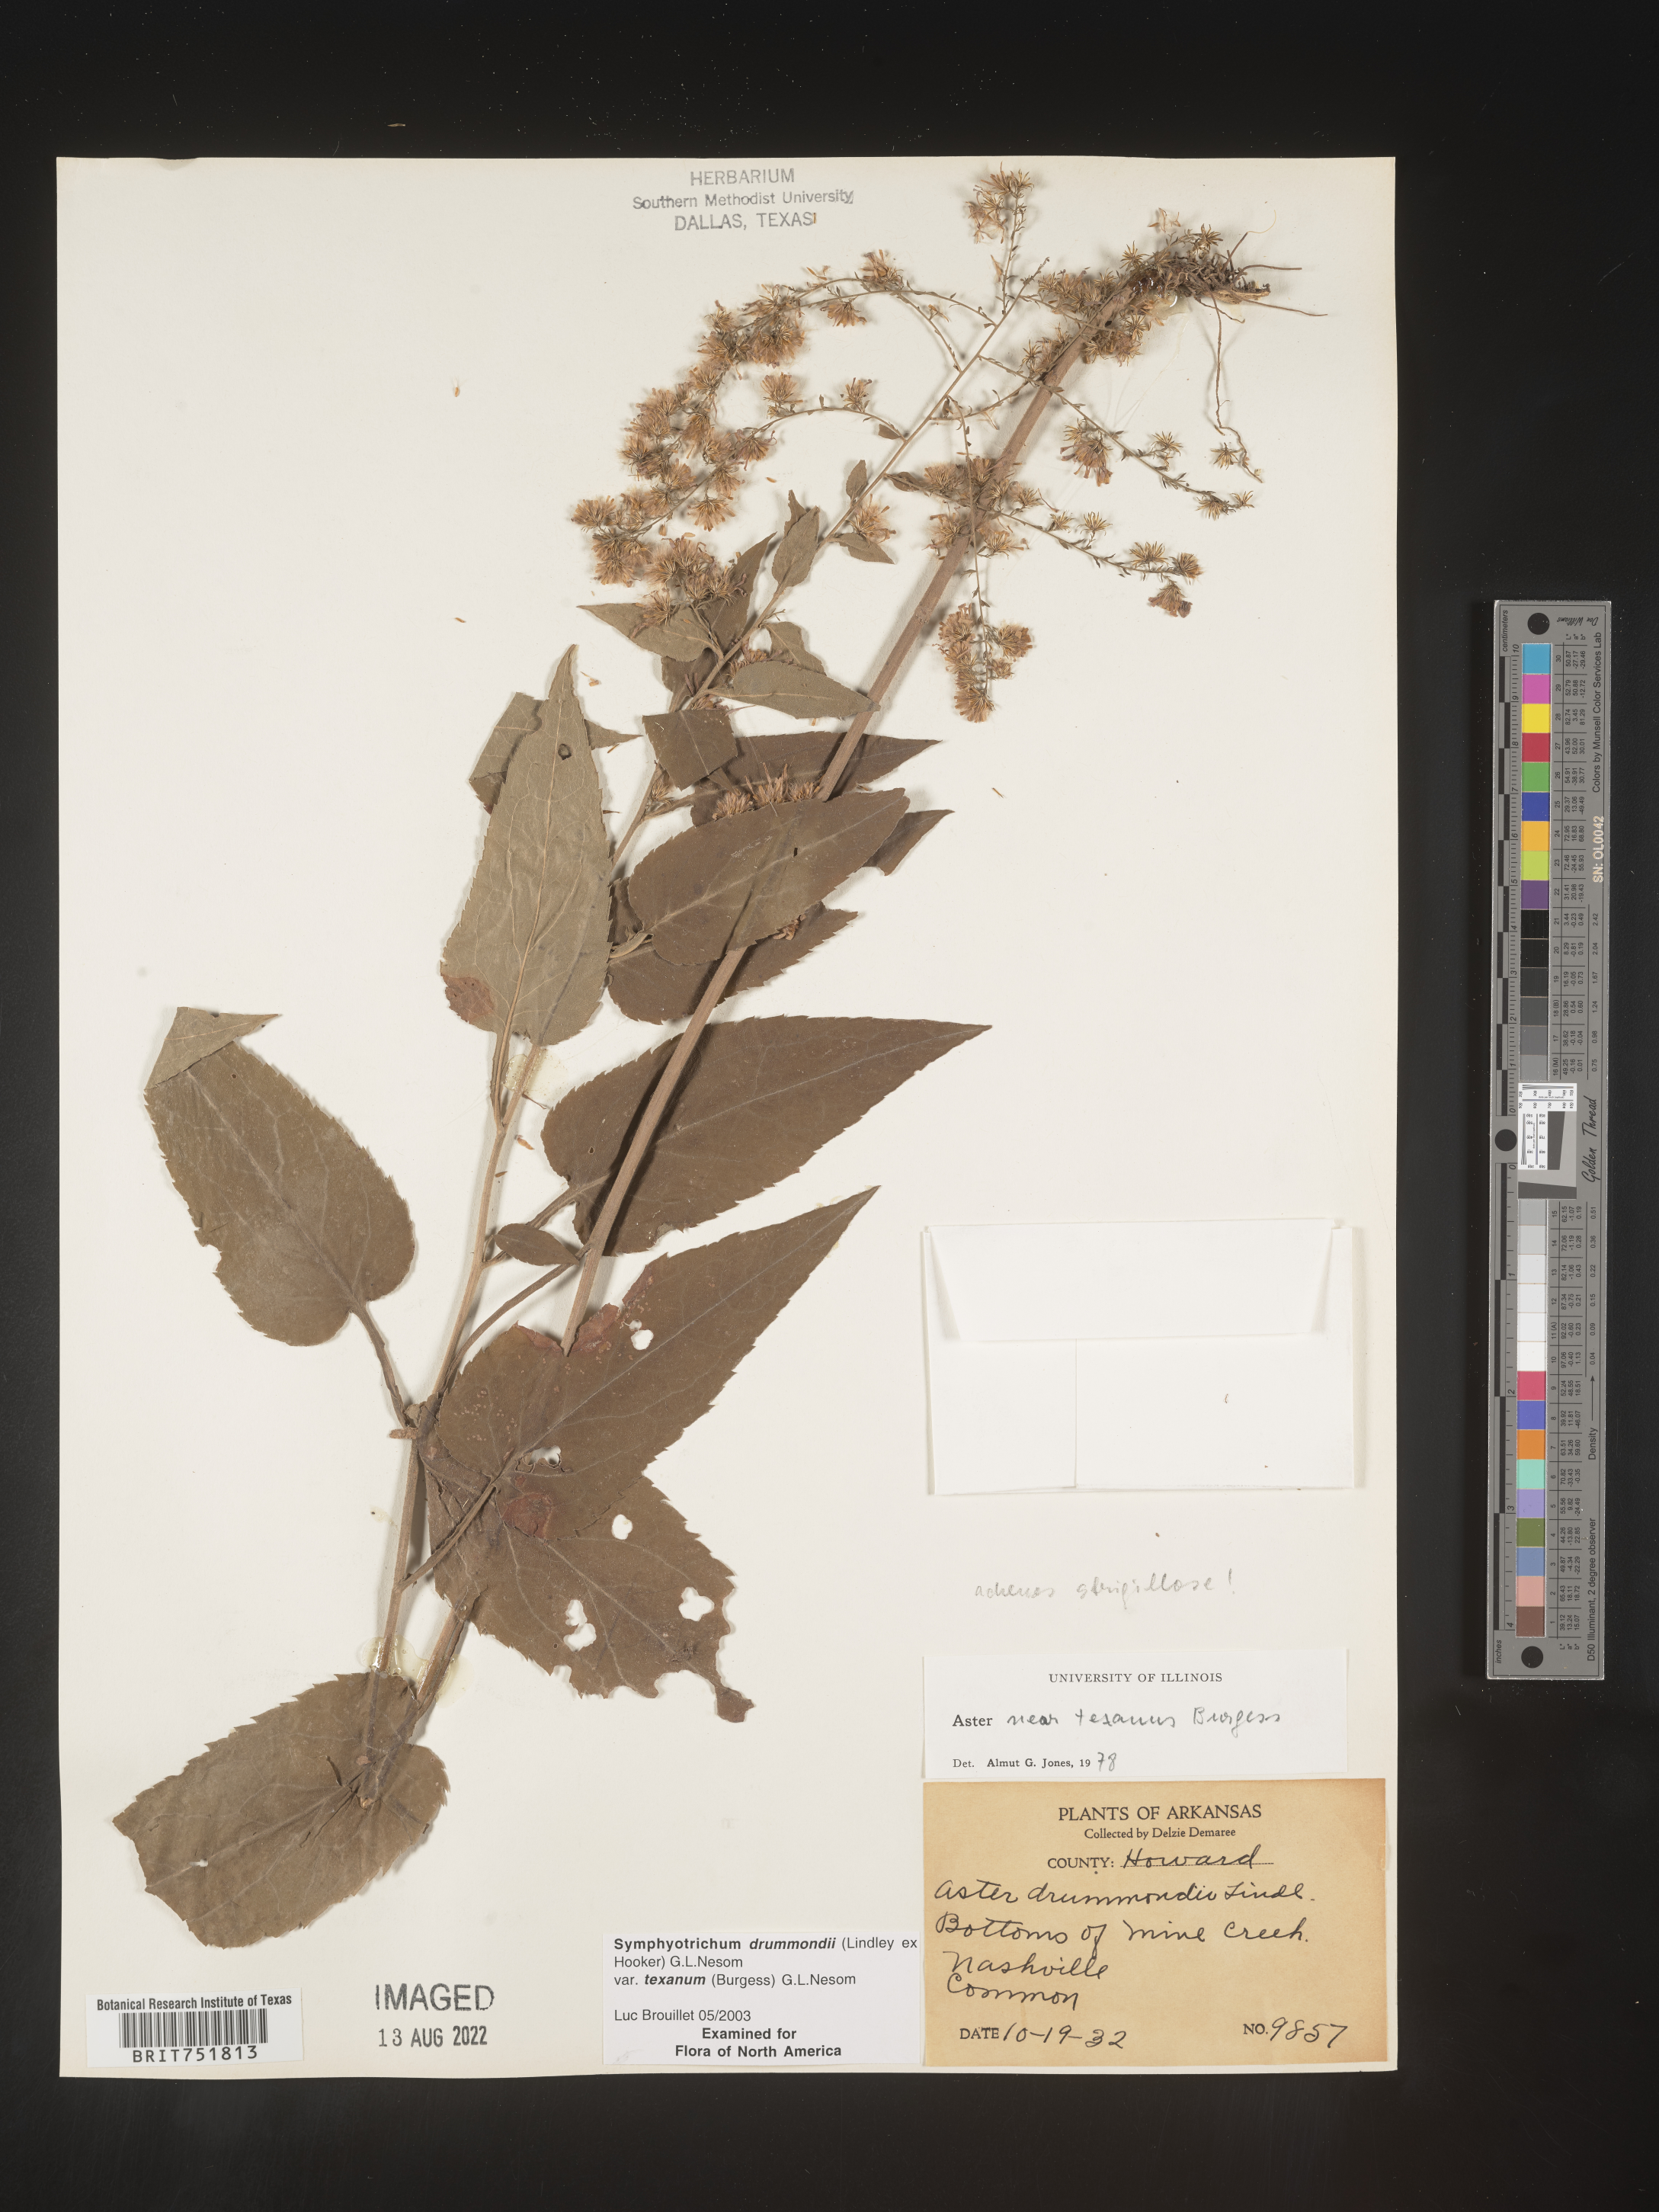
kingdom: Plantae
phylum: Tracheophyta
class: Magnoliopsida
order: Asterales
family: Asteraceae
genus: Symphyotrichum
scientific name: Symphyotrichum drummondii
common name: Drummond's aster
